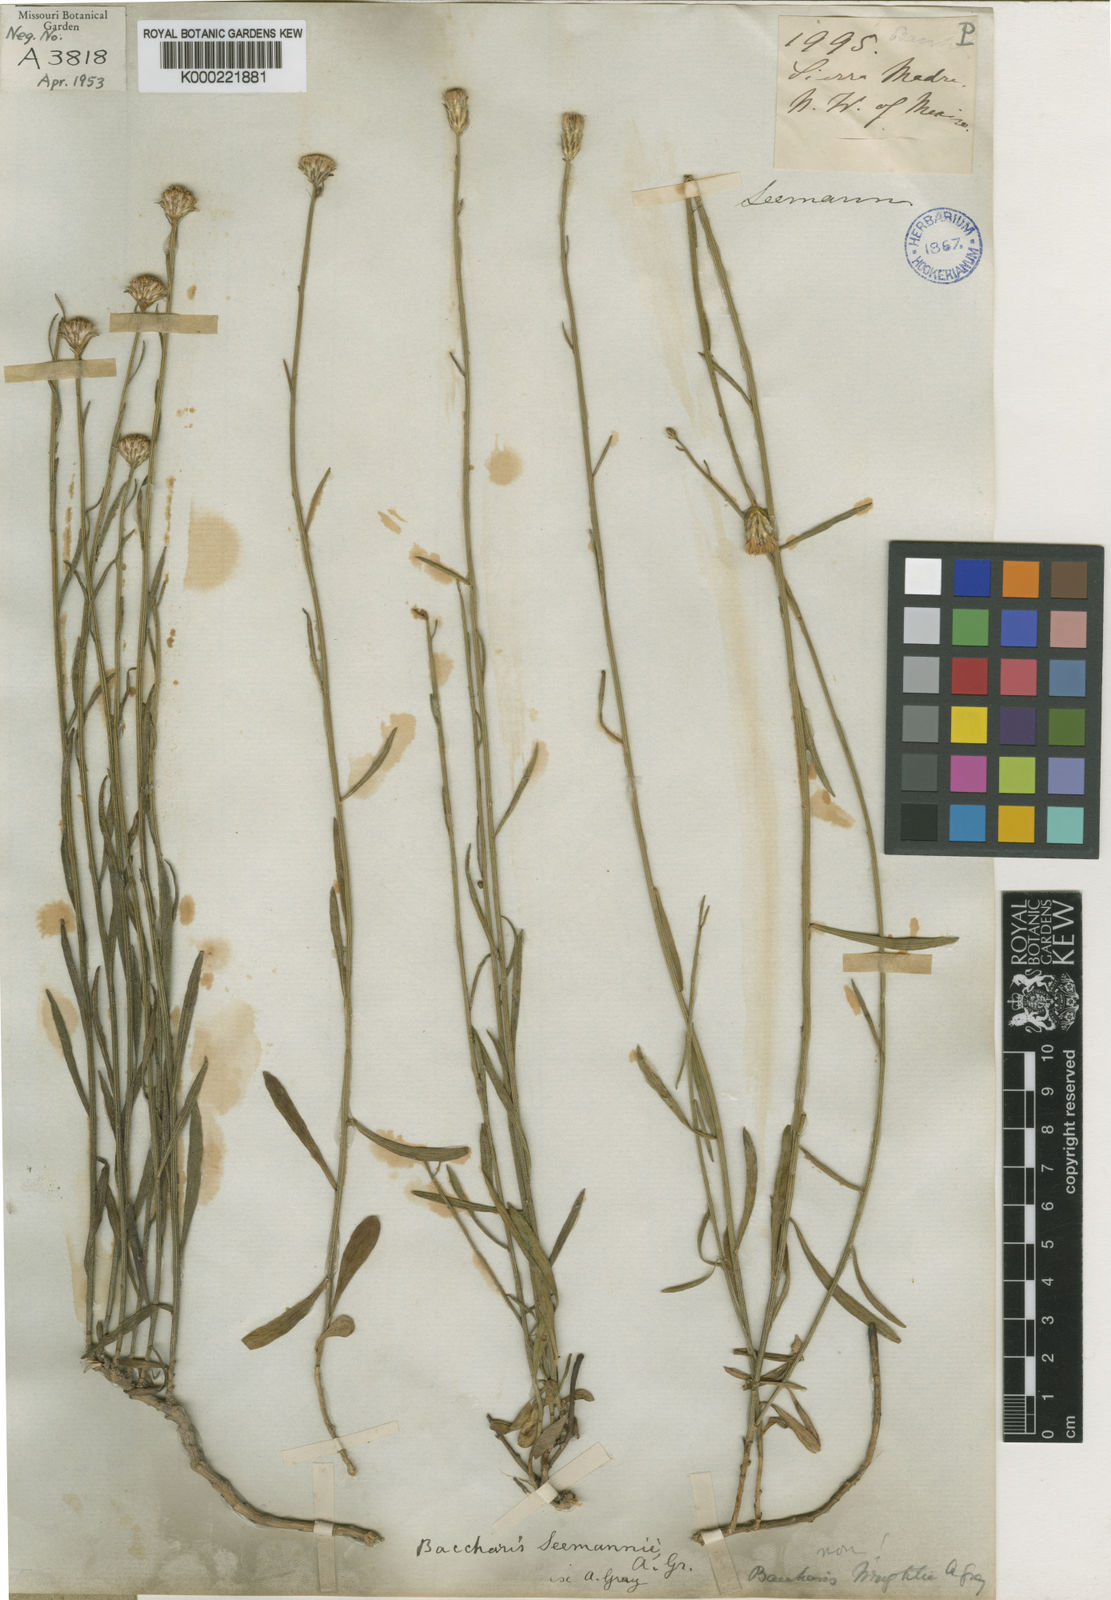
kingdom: Plantae
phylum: Tracheophyta
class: Magnoliopsida
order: Asterales
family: Asteraceae
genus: Baccharis
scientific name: Baccharis sergiloides
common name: Desert baccharis
